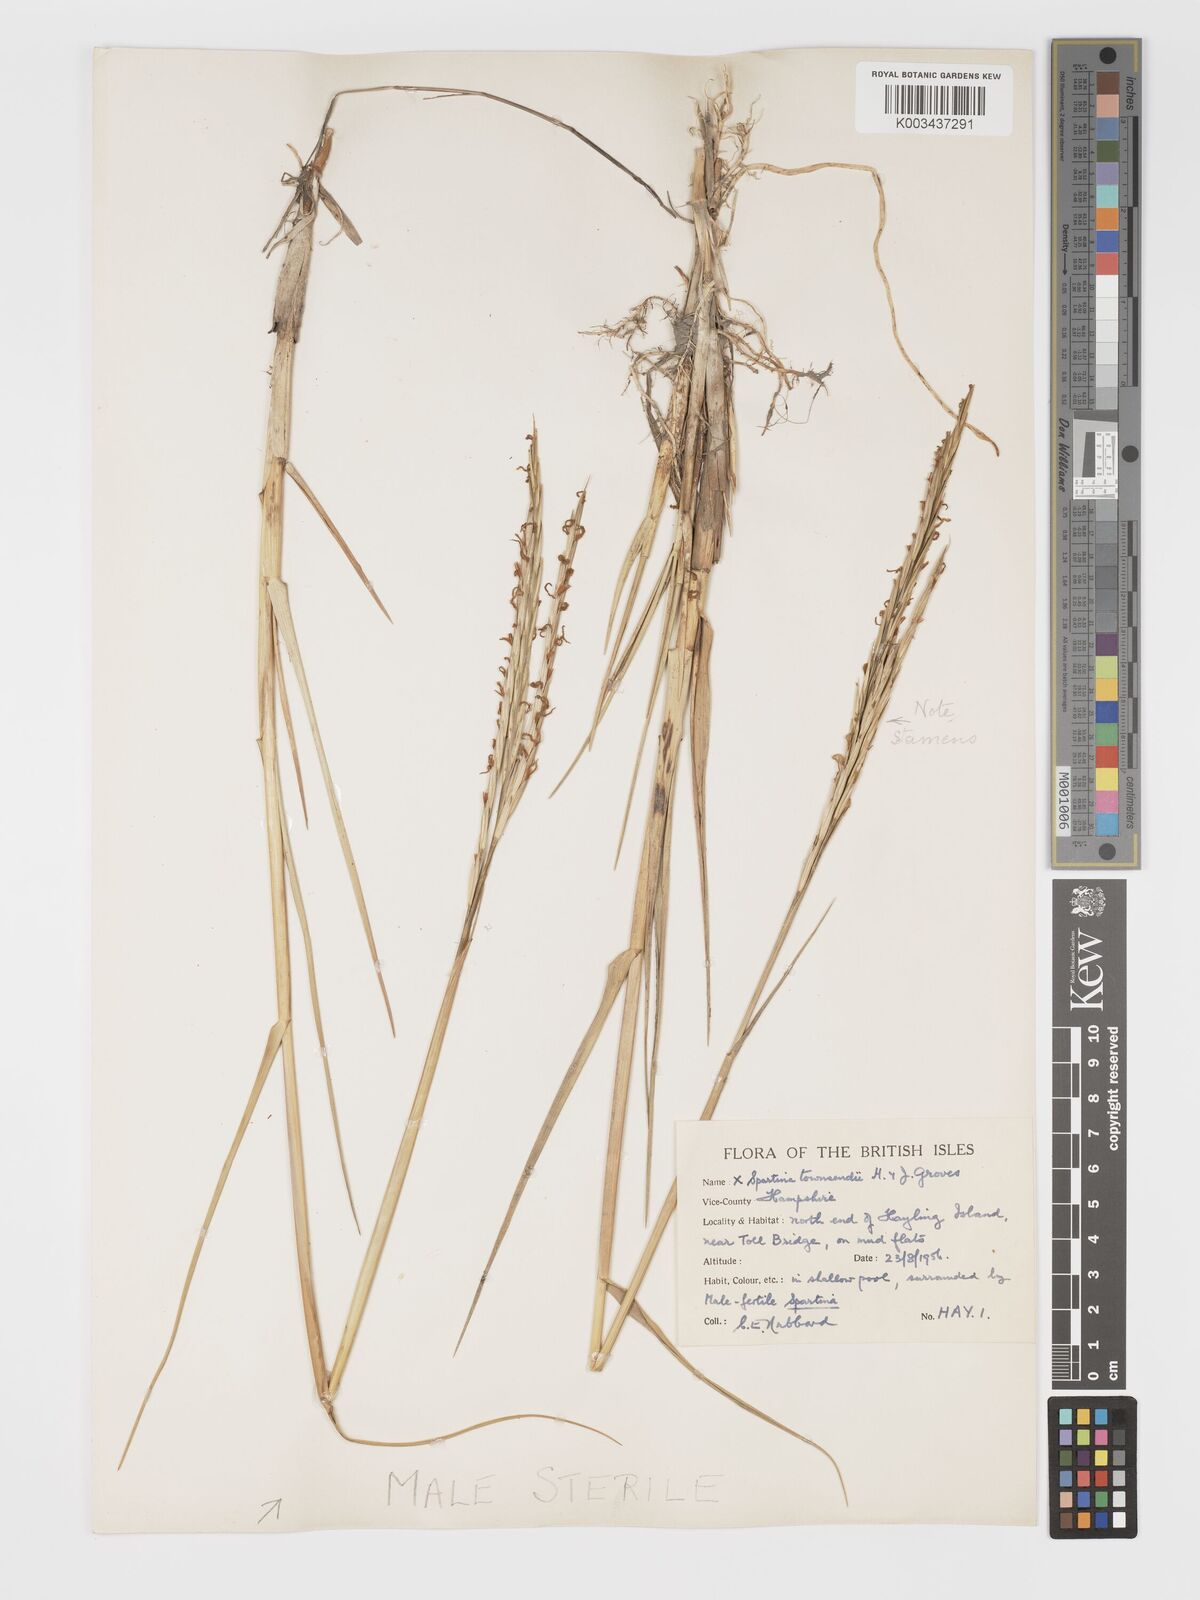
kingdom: Plantae
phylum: Tracheophyta
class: Liliopsida
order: Poales
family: Poaceae
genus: Sporobolus
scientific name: Sporobolus townsendii
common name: Townsend's cordgrass
